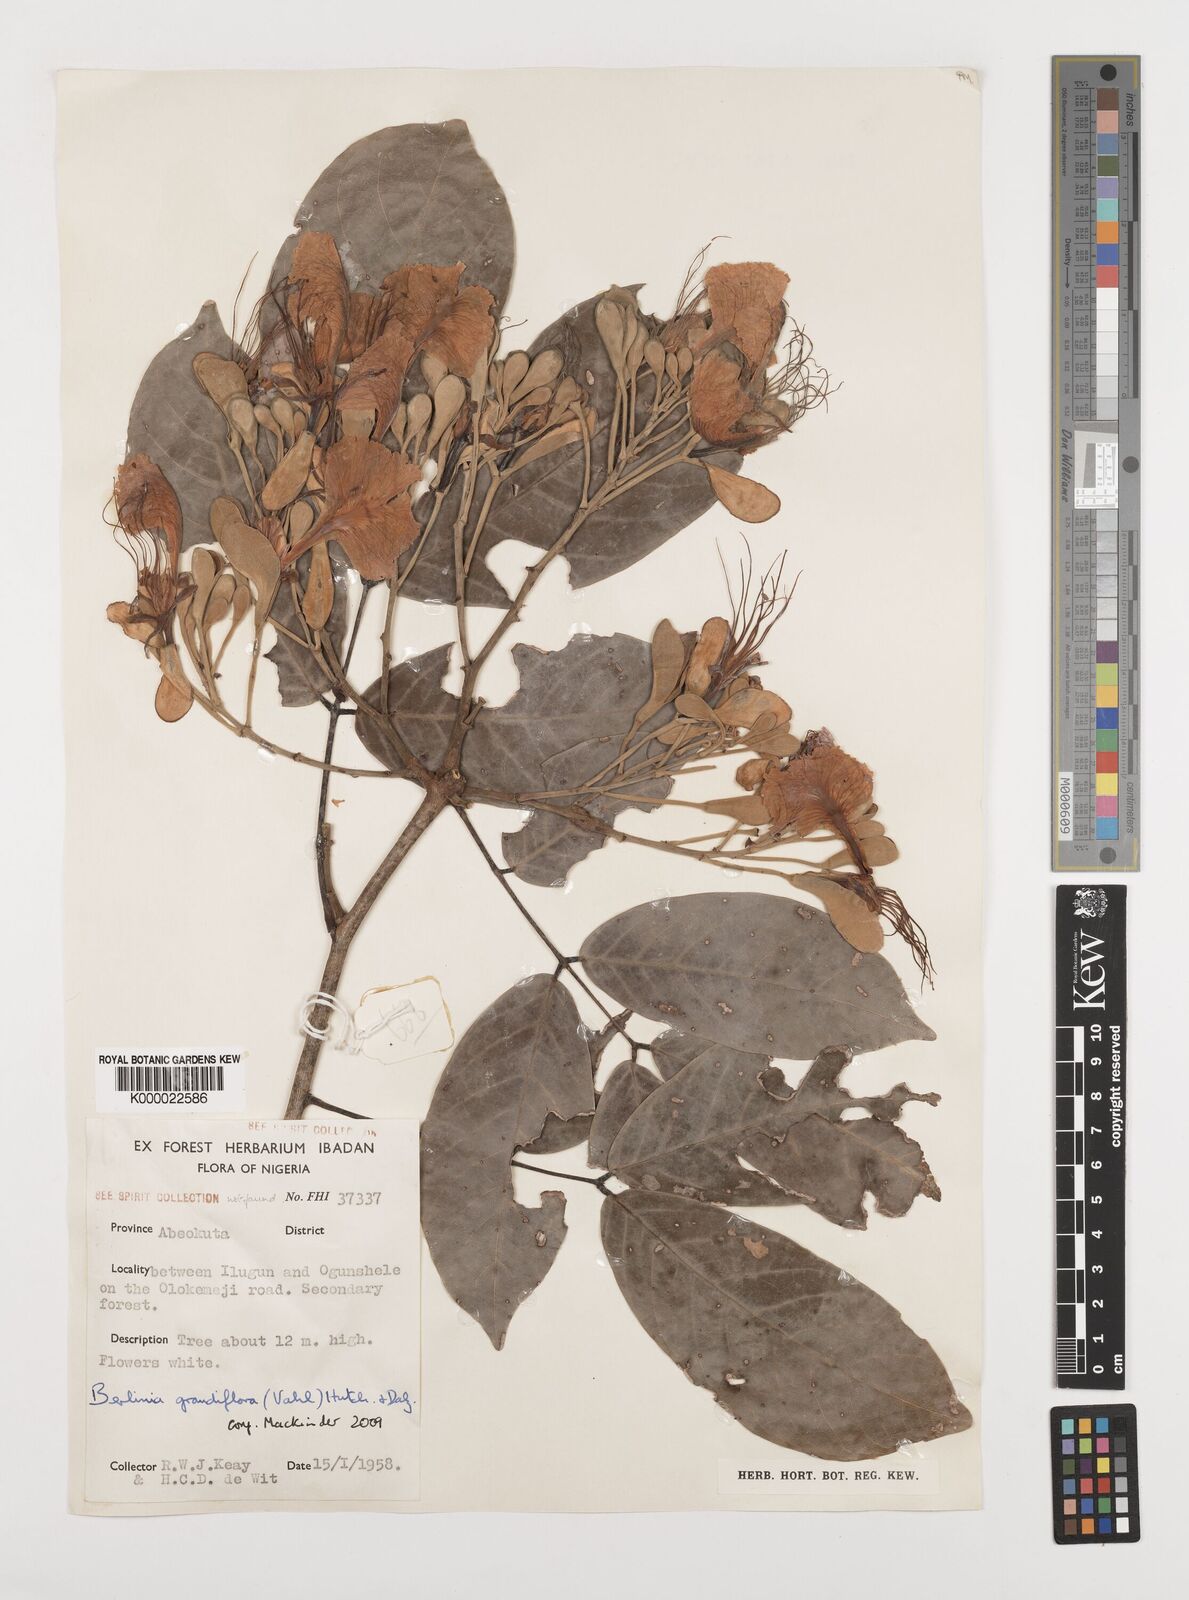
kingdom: Plantae
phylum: Tracheophyta
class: Magnoliopsida
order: Fabales
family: Fabaceae
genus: Berlinia
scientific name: Berlinia grandiflora
